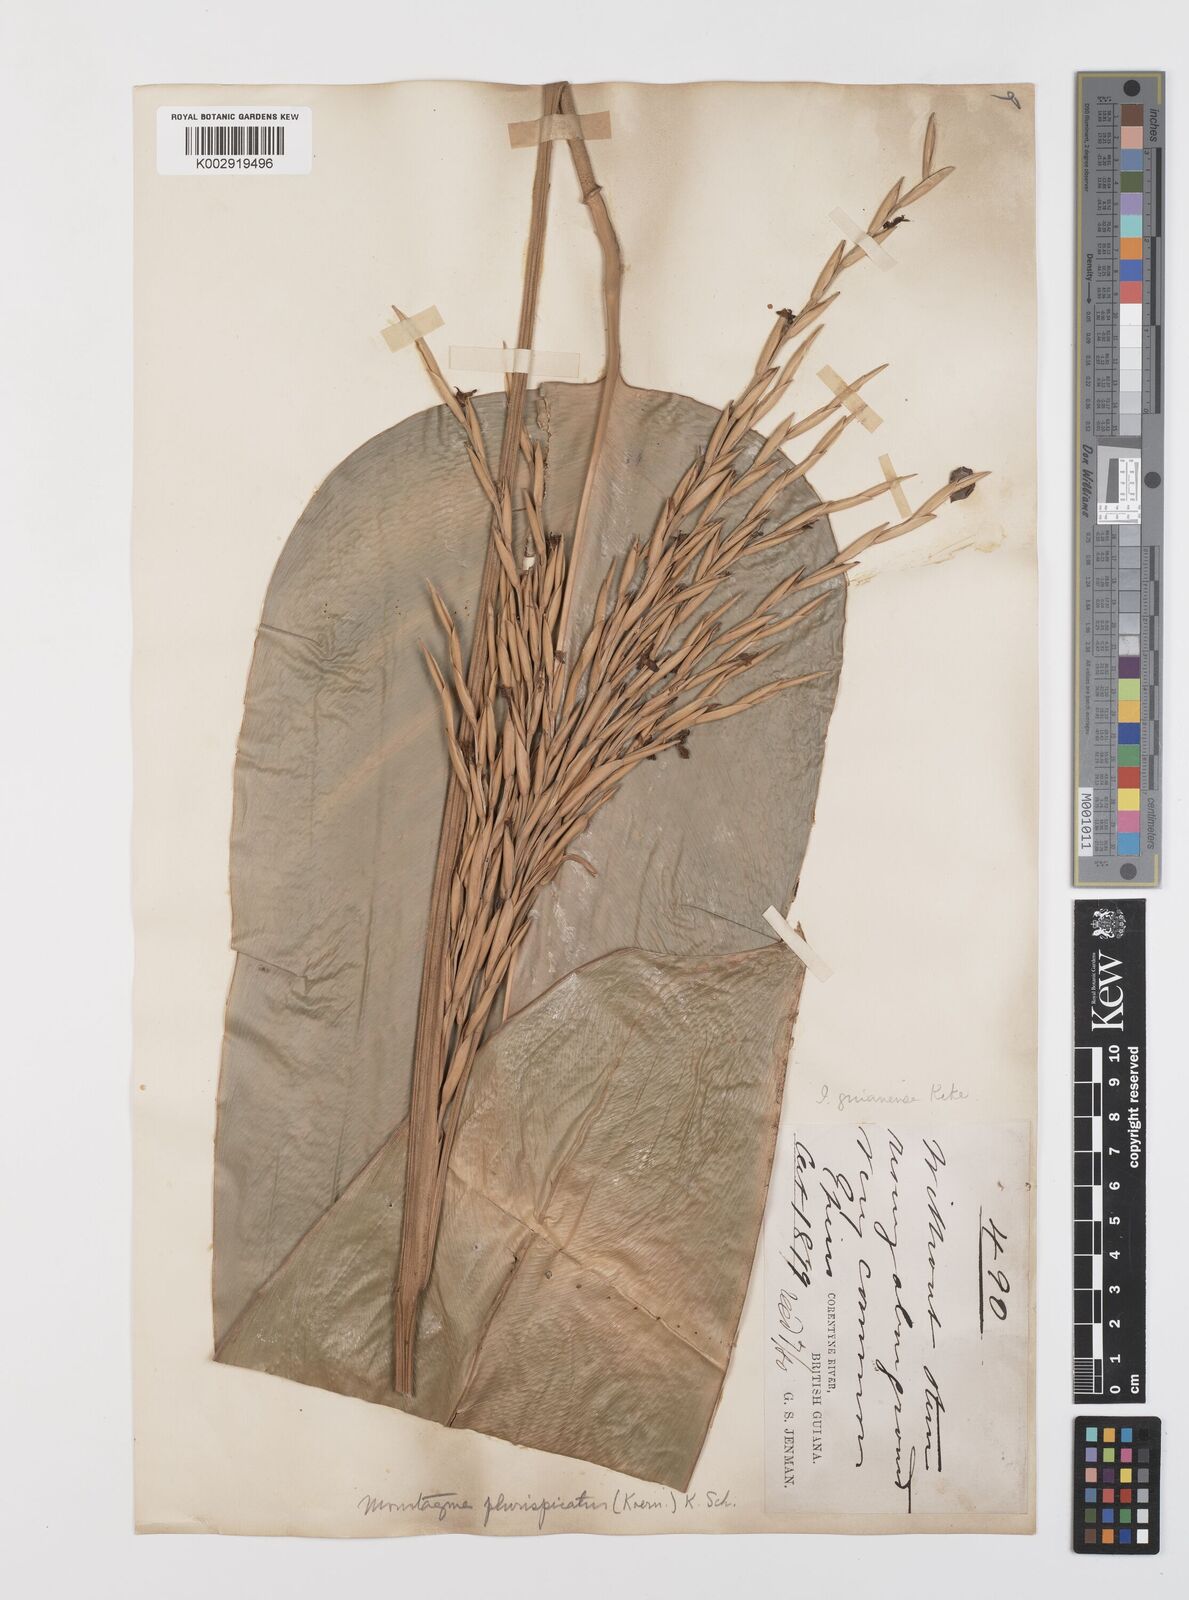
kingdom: Plantae
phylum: Tracheophyta
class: Liliopsida
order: Zingiberales
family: Marantaceae
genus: Monotagma
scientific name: Monotagma plurispicatum
